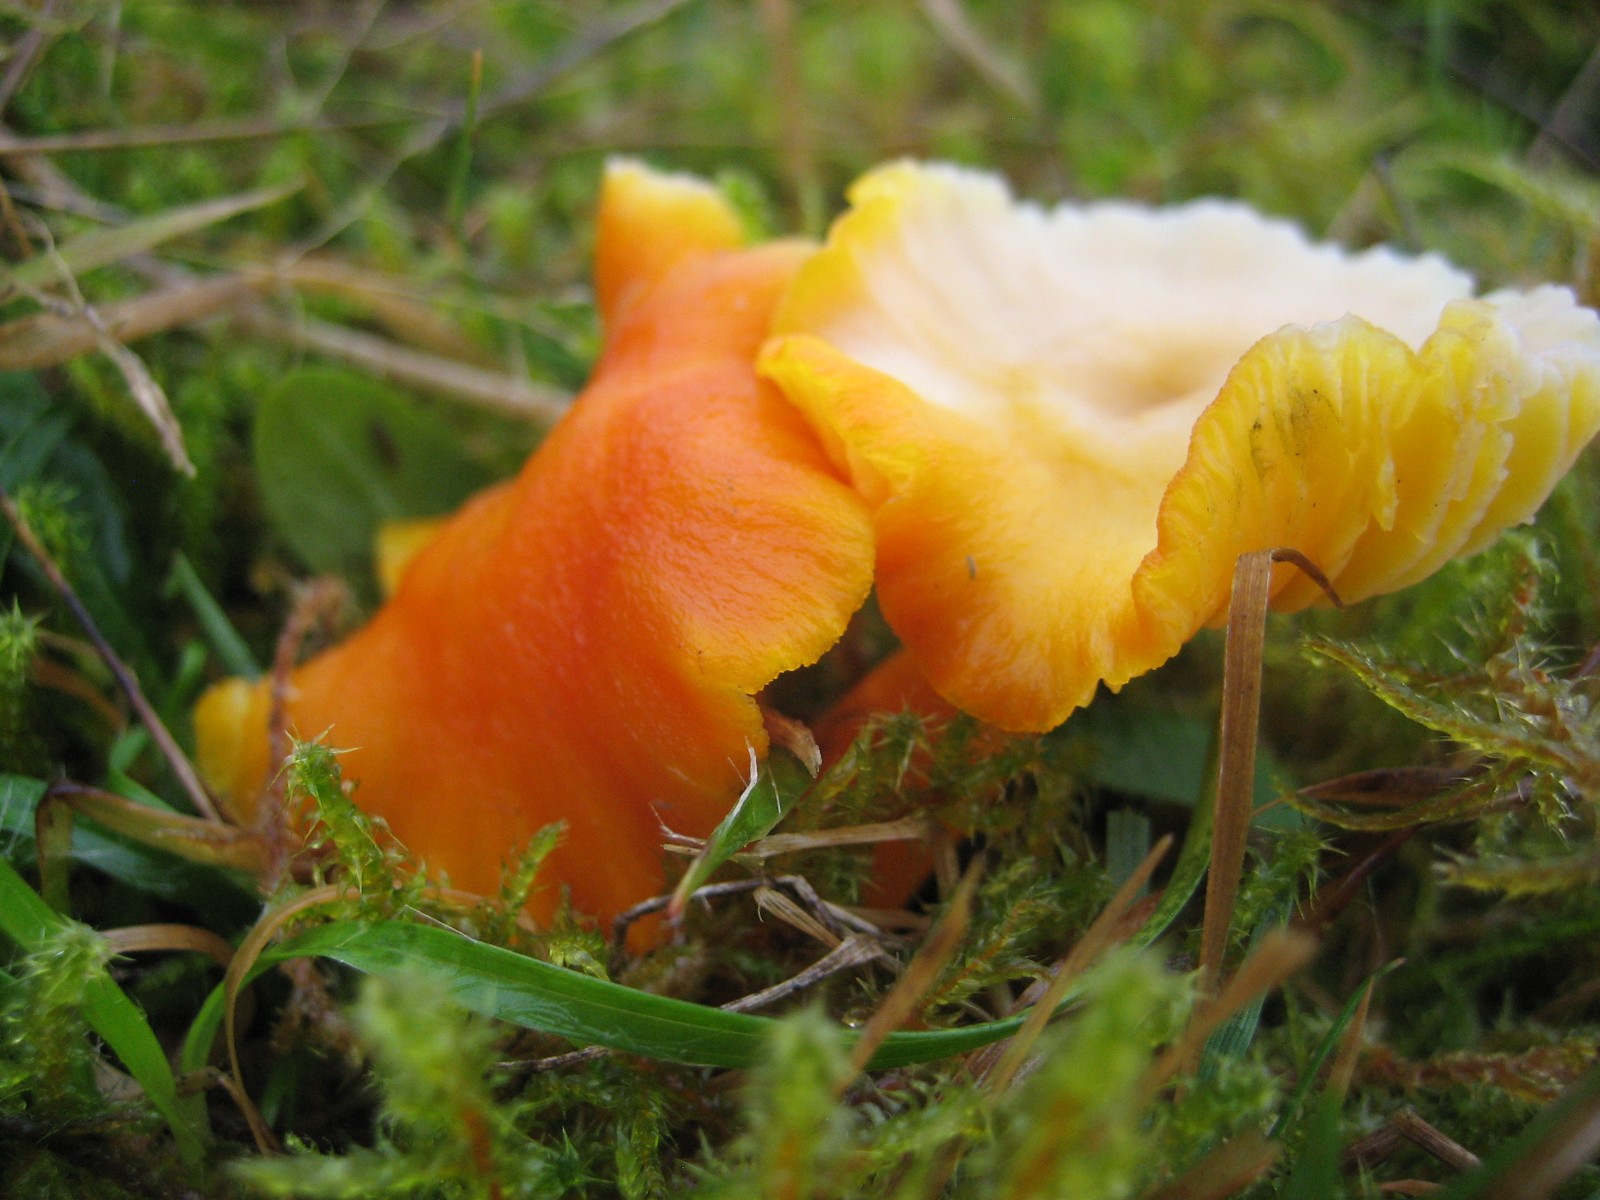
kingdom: Fungi
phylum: Basidiomycota
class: Agaricomycetes
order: Agaricales
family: Hygrophoraceae
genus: Hygrocybe
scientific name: Hygrocybe miniata
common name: mønje-vokshat
